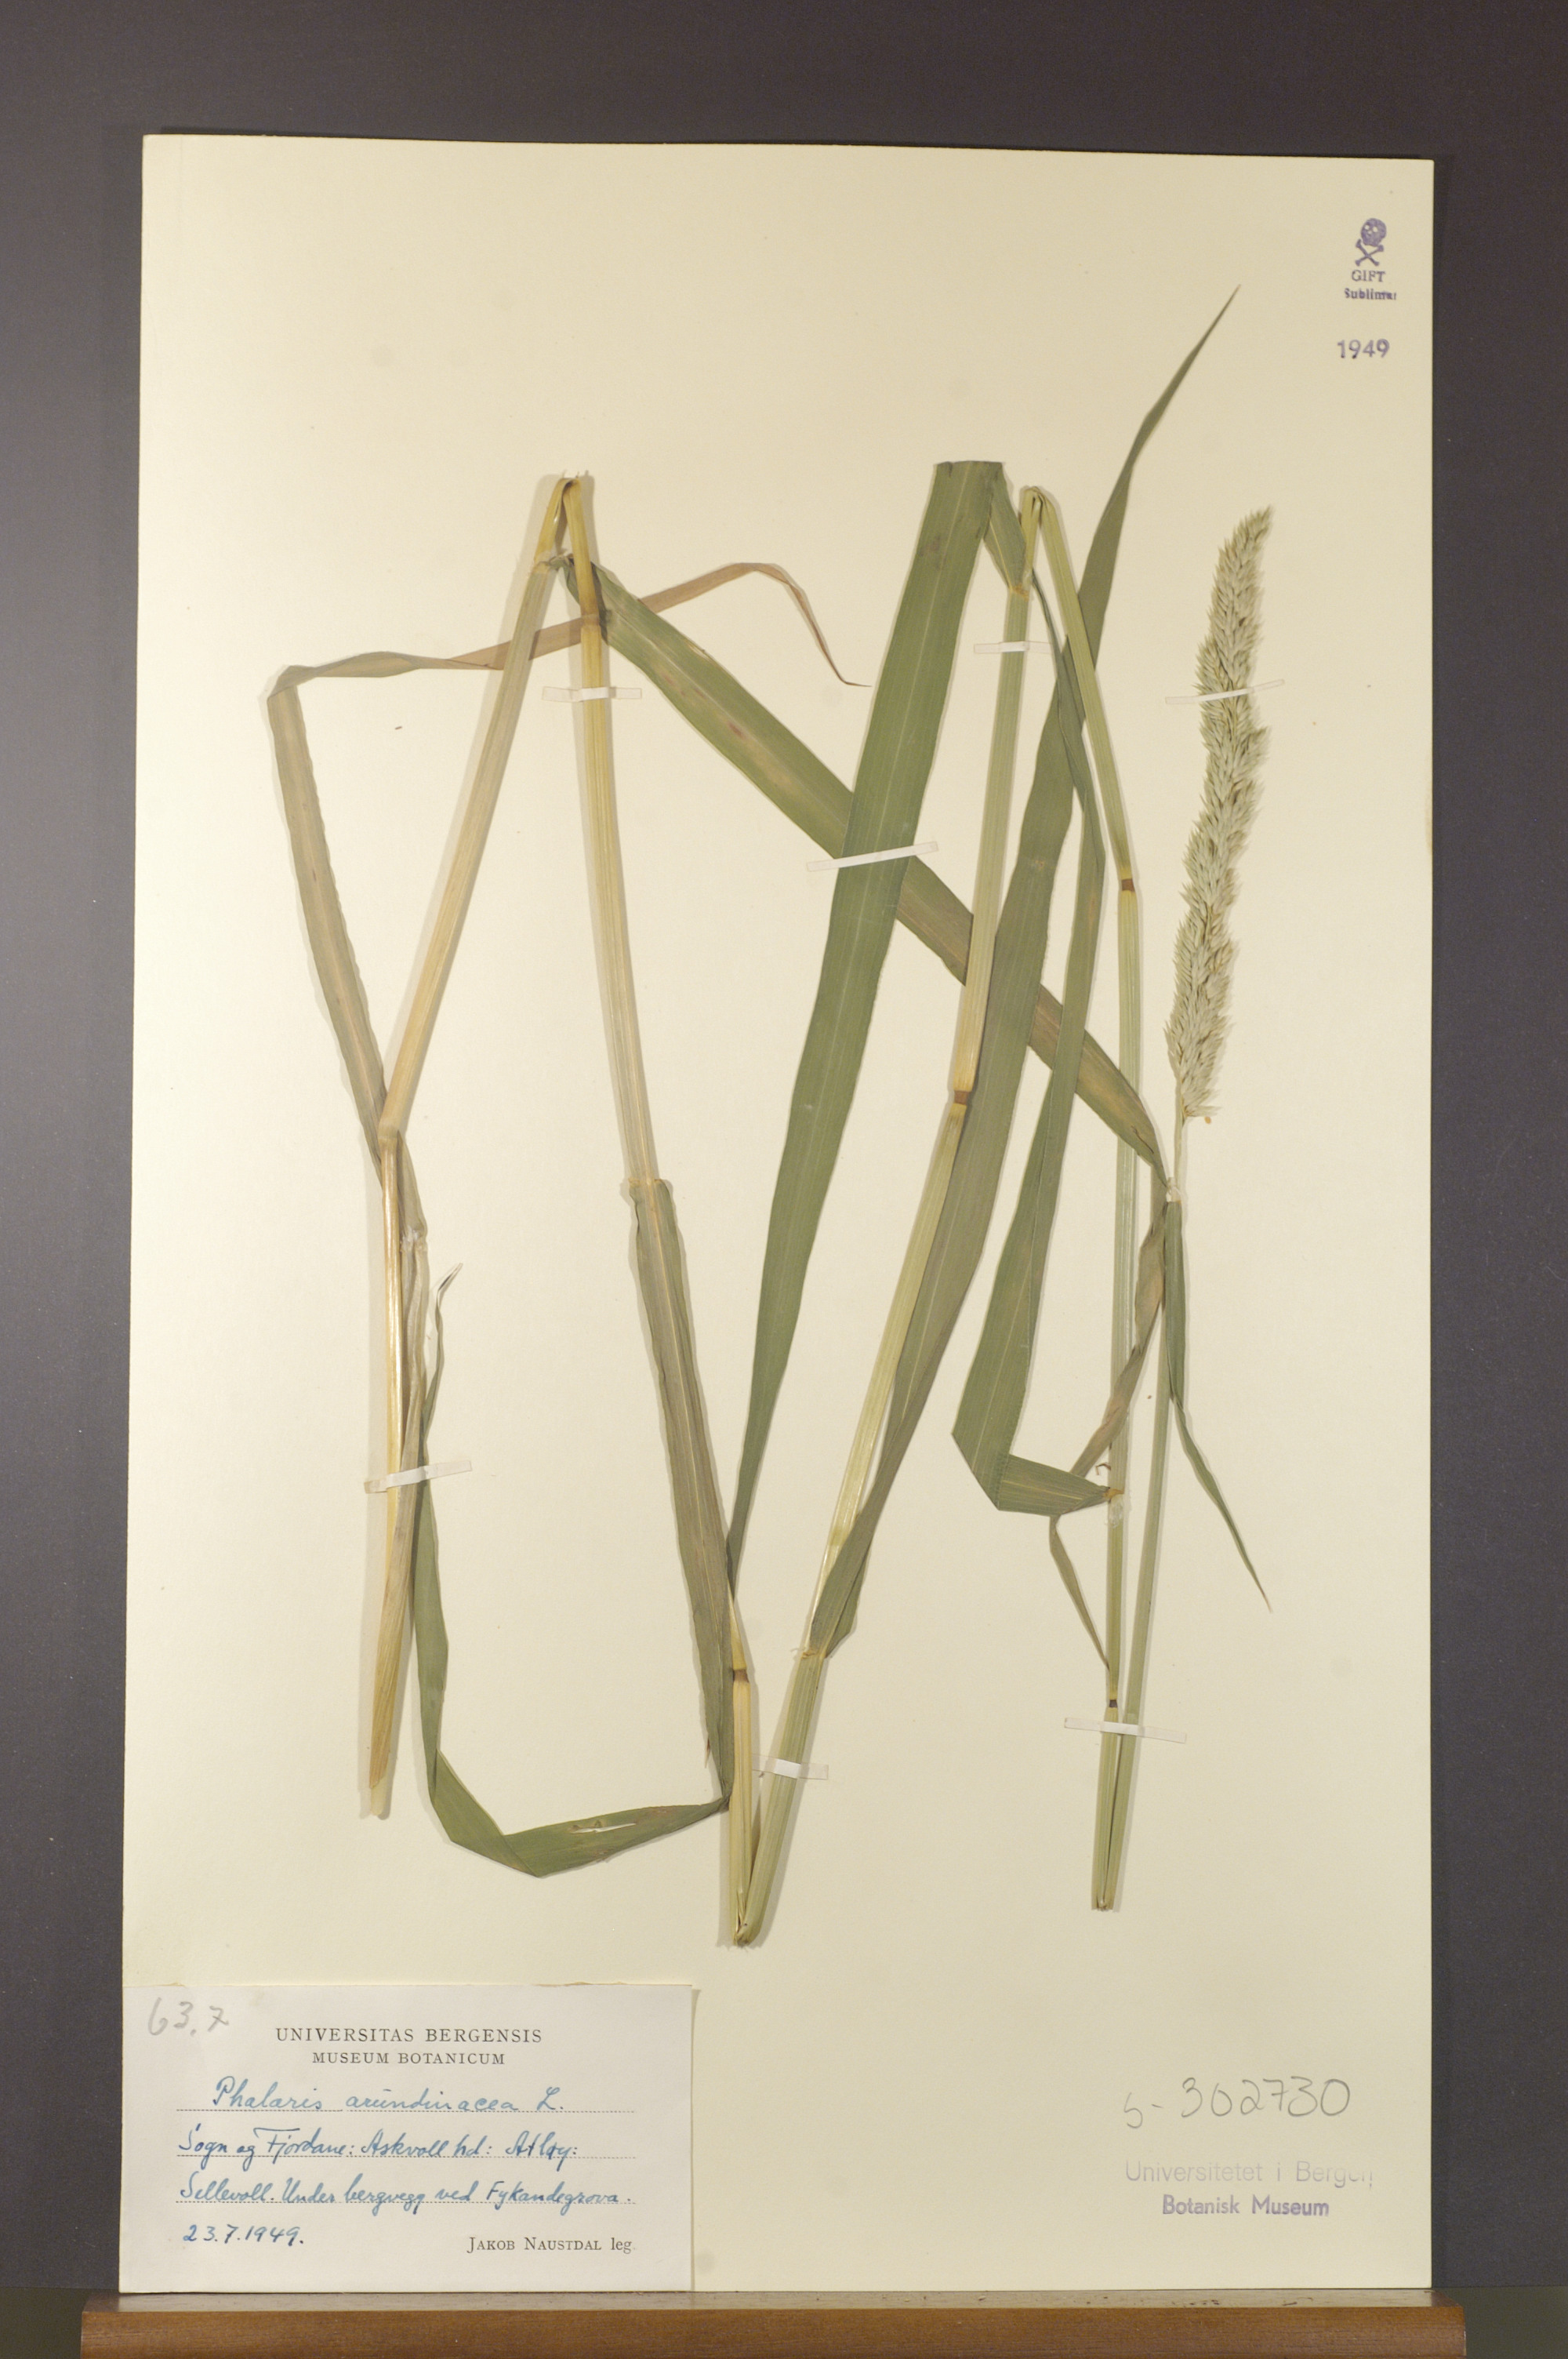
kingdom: Plantae
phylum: Tracheophyta
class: Liliopsida
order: Poales
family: Poaceae
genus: Phalaris
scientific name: Phalaris arundinacea
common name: Reed canary-grass
